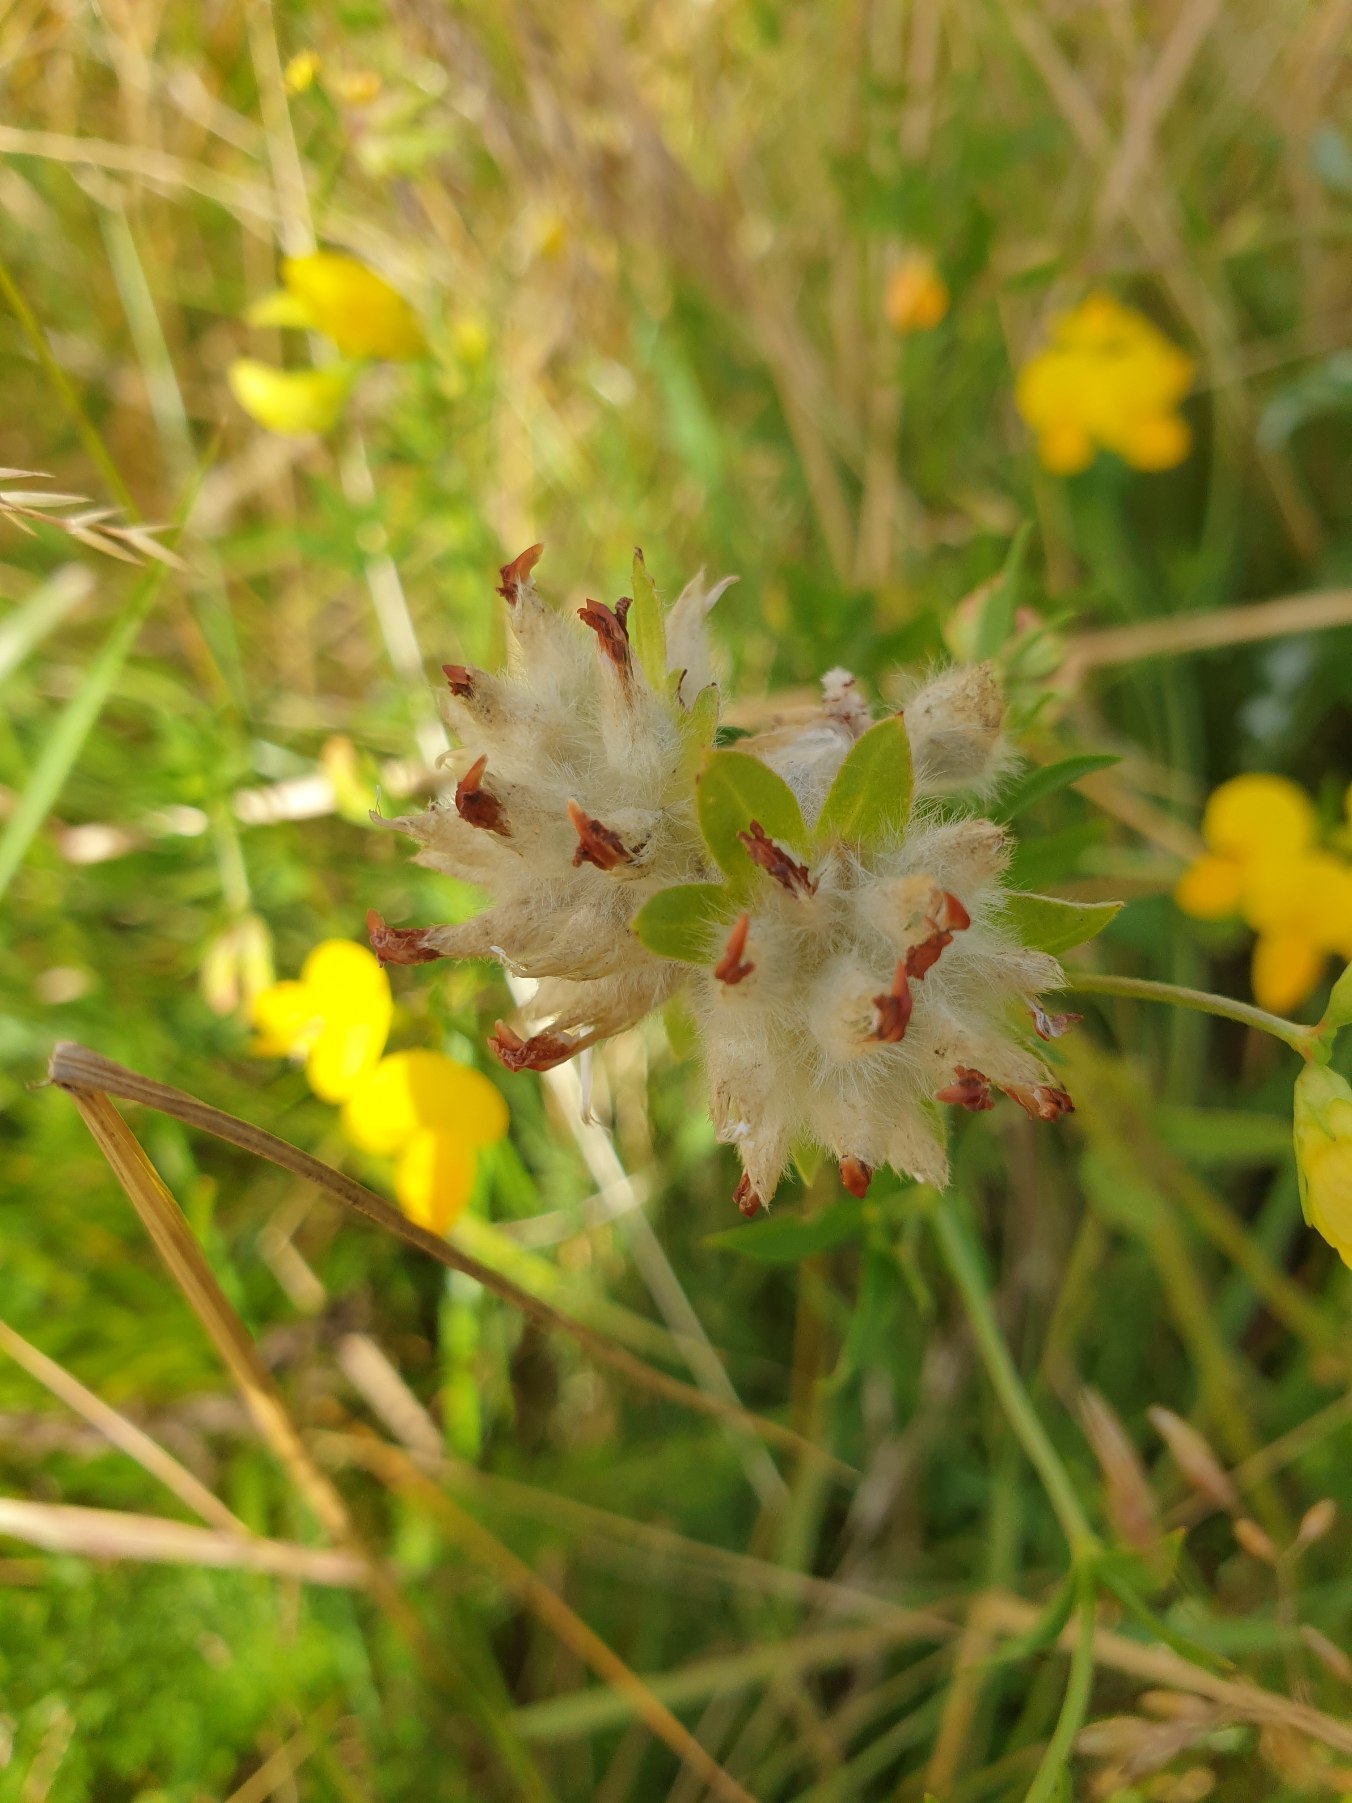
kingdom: Plantae
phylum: Tracheophyta
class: Magnoliopsida
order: Fabales
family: Fabaceae
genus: Anthyllis
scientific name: Anthyllis vulneraria
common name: Rundbælg
